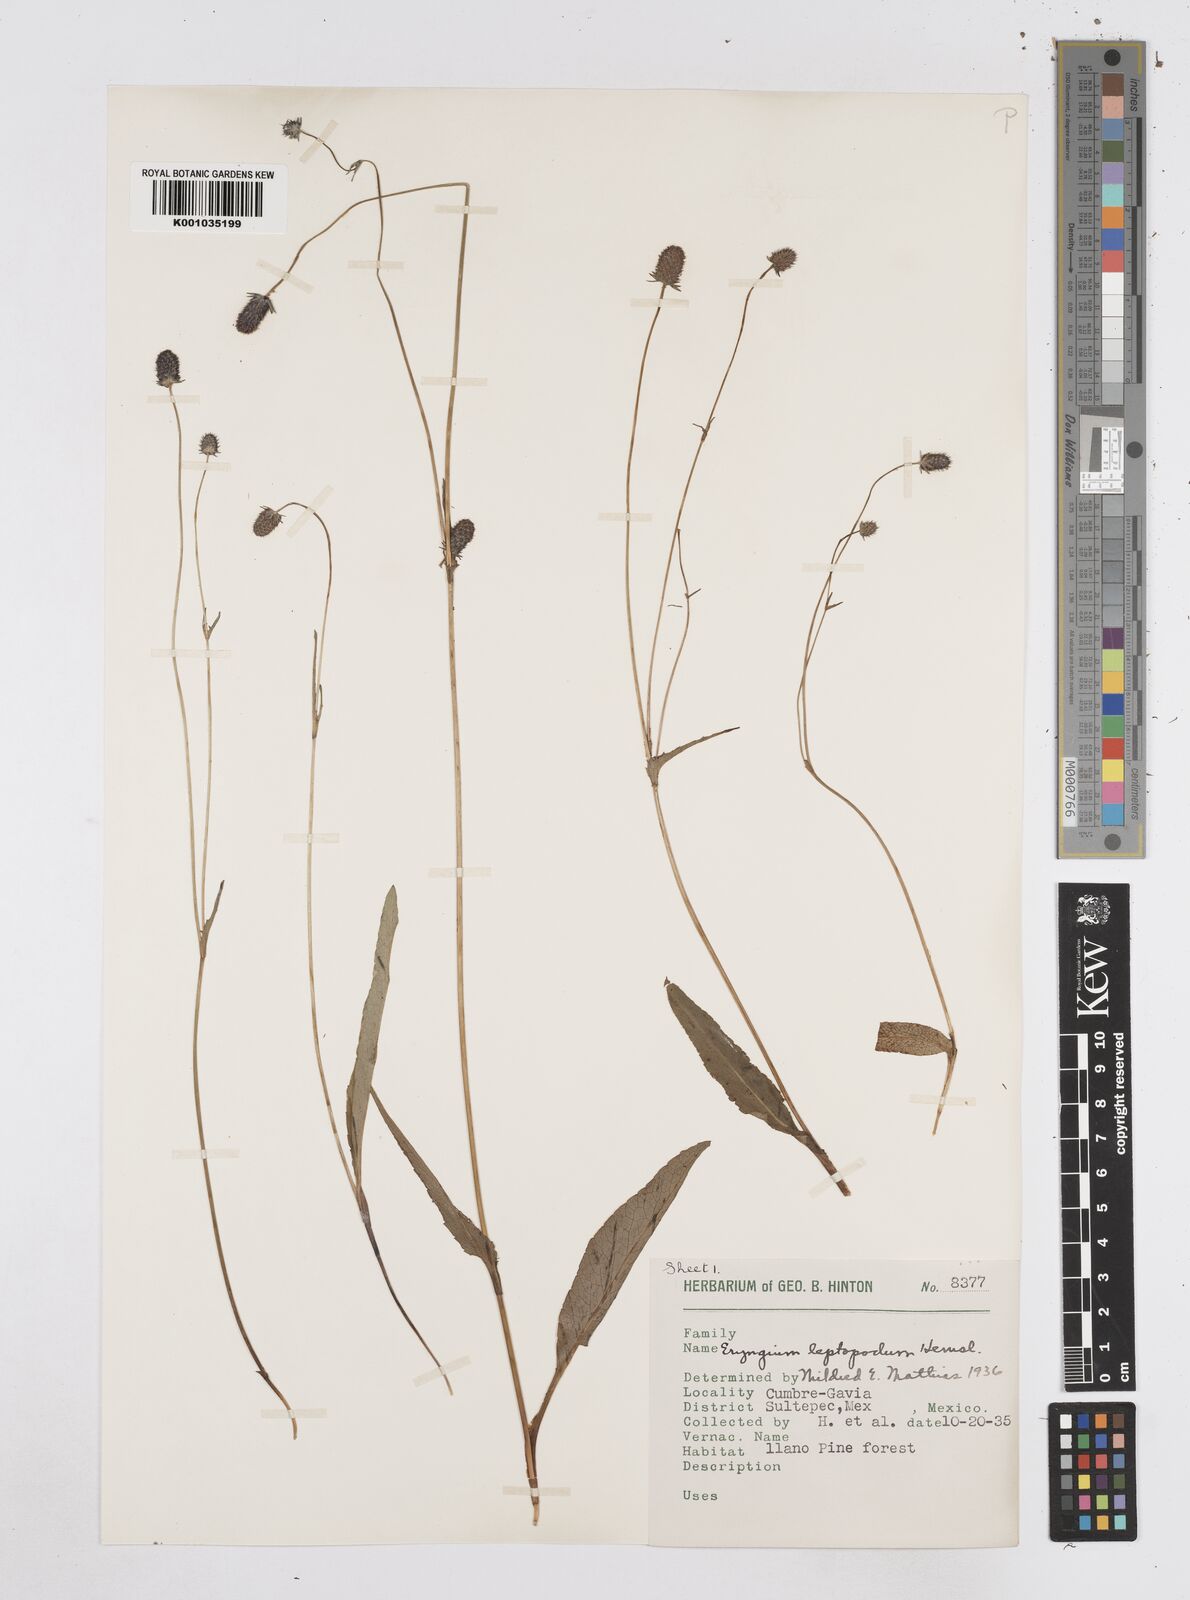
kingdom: Plantae
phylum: Tracheophyta
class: Magnoliopsida
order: Apiales
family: Apiaceae
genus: Eryngium
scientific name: Eryngium bonplandii
